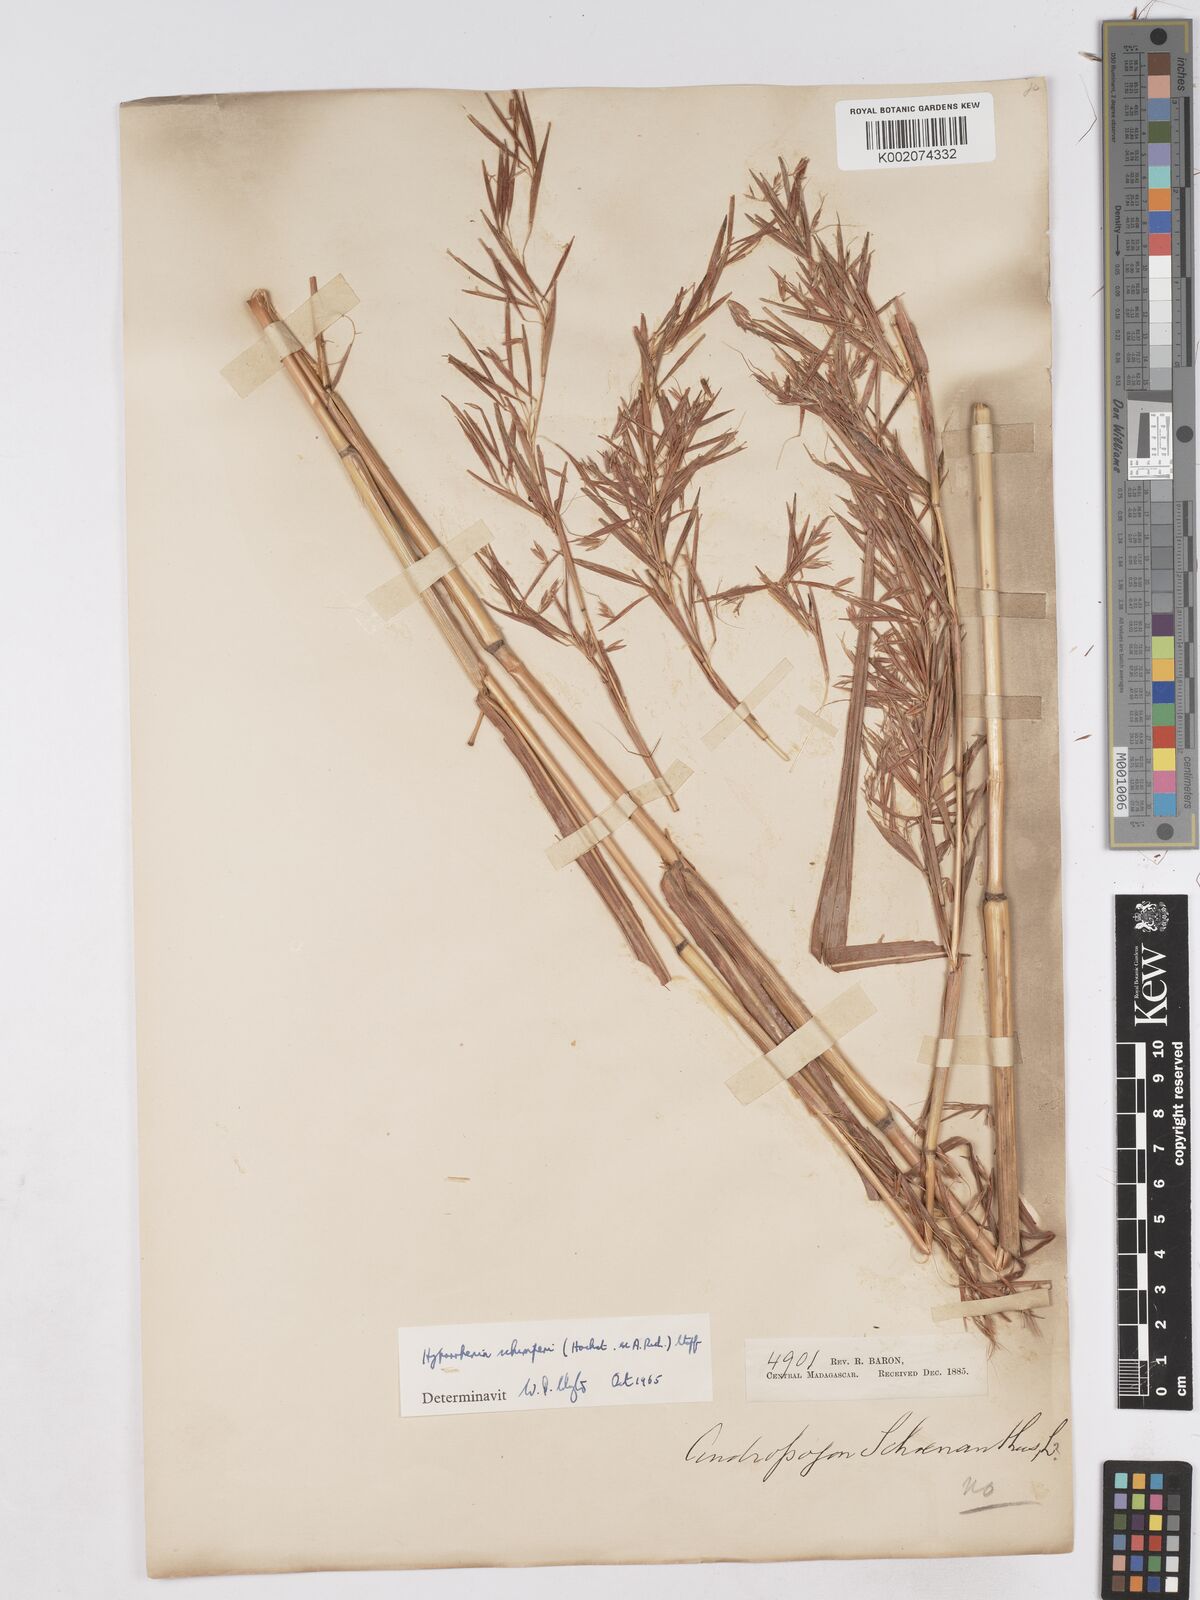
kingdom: Plantae
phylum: Tracheophyta
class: Liliopsida
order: Poales
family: Poaceae
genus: Hyparrhenia
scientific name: Hyparrhenia variabilis
